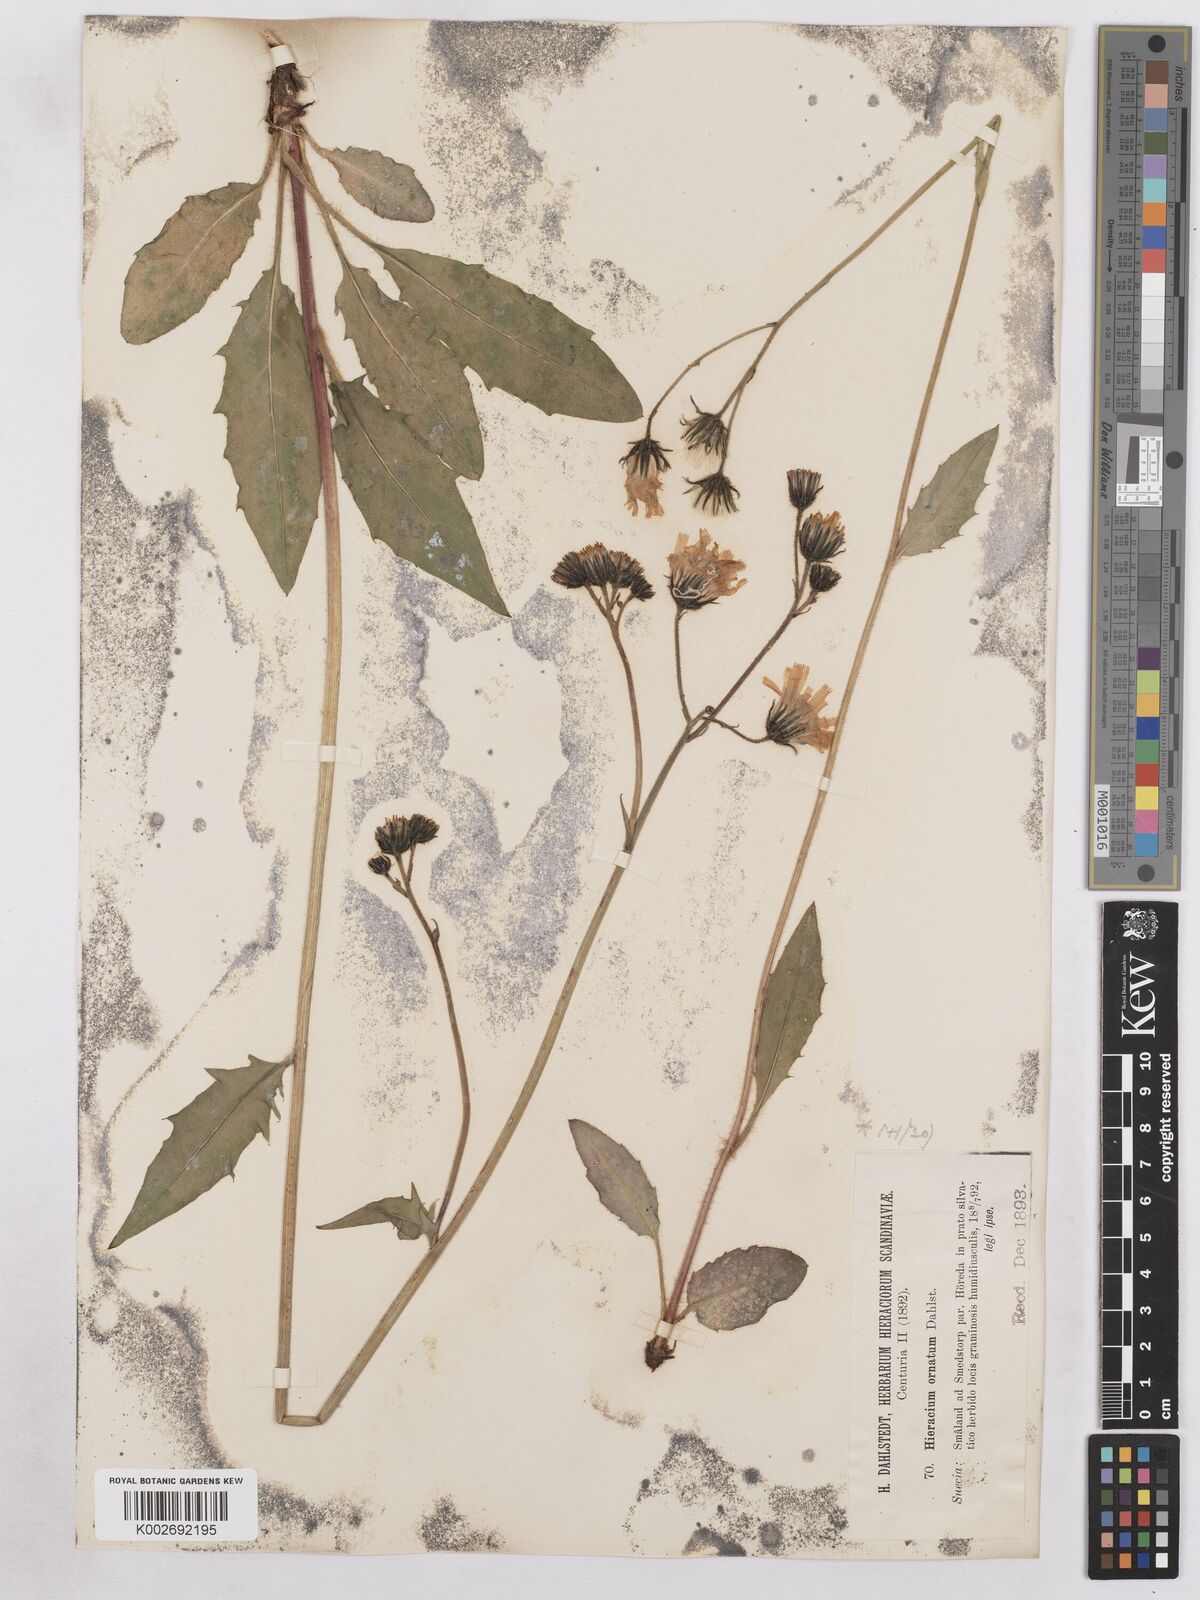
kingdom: Plantae
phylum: Tracheophyta
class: Magnoliopsida
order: Asterales
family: Asteraceae
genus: Hieracium
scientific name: Hieracium diaphanoides
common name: Fine-bracted hawkweed
